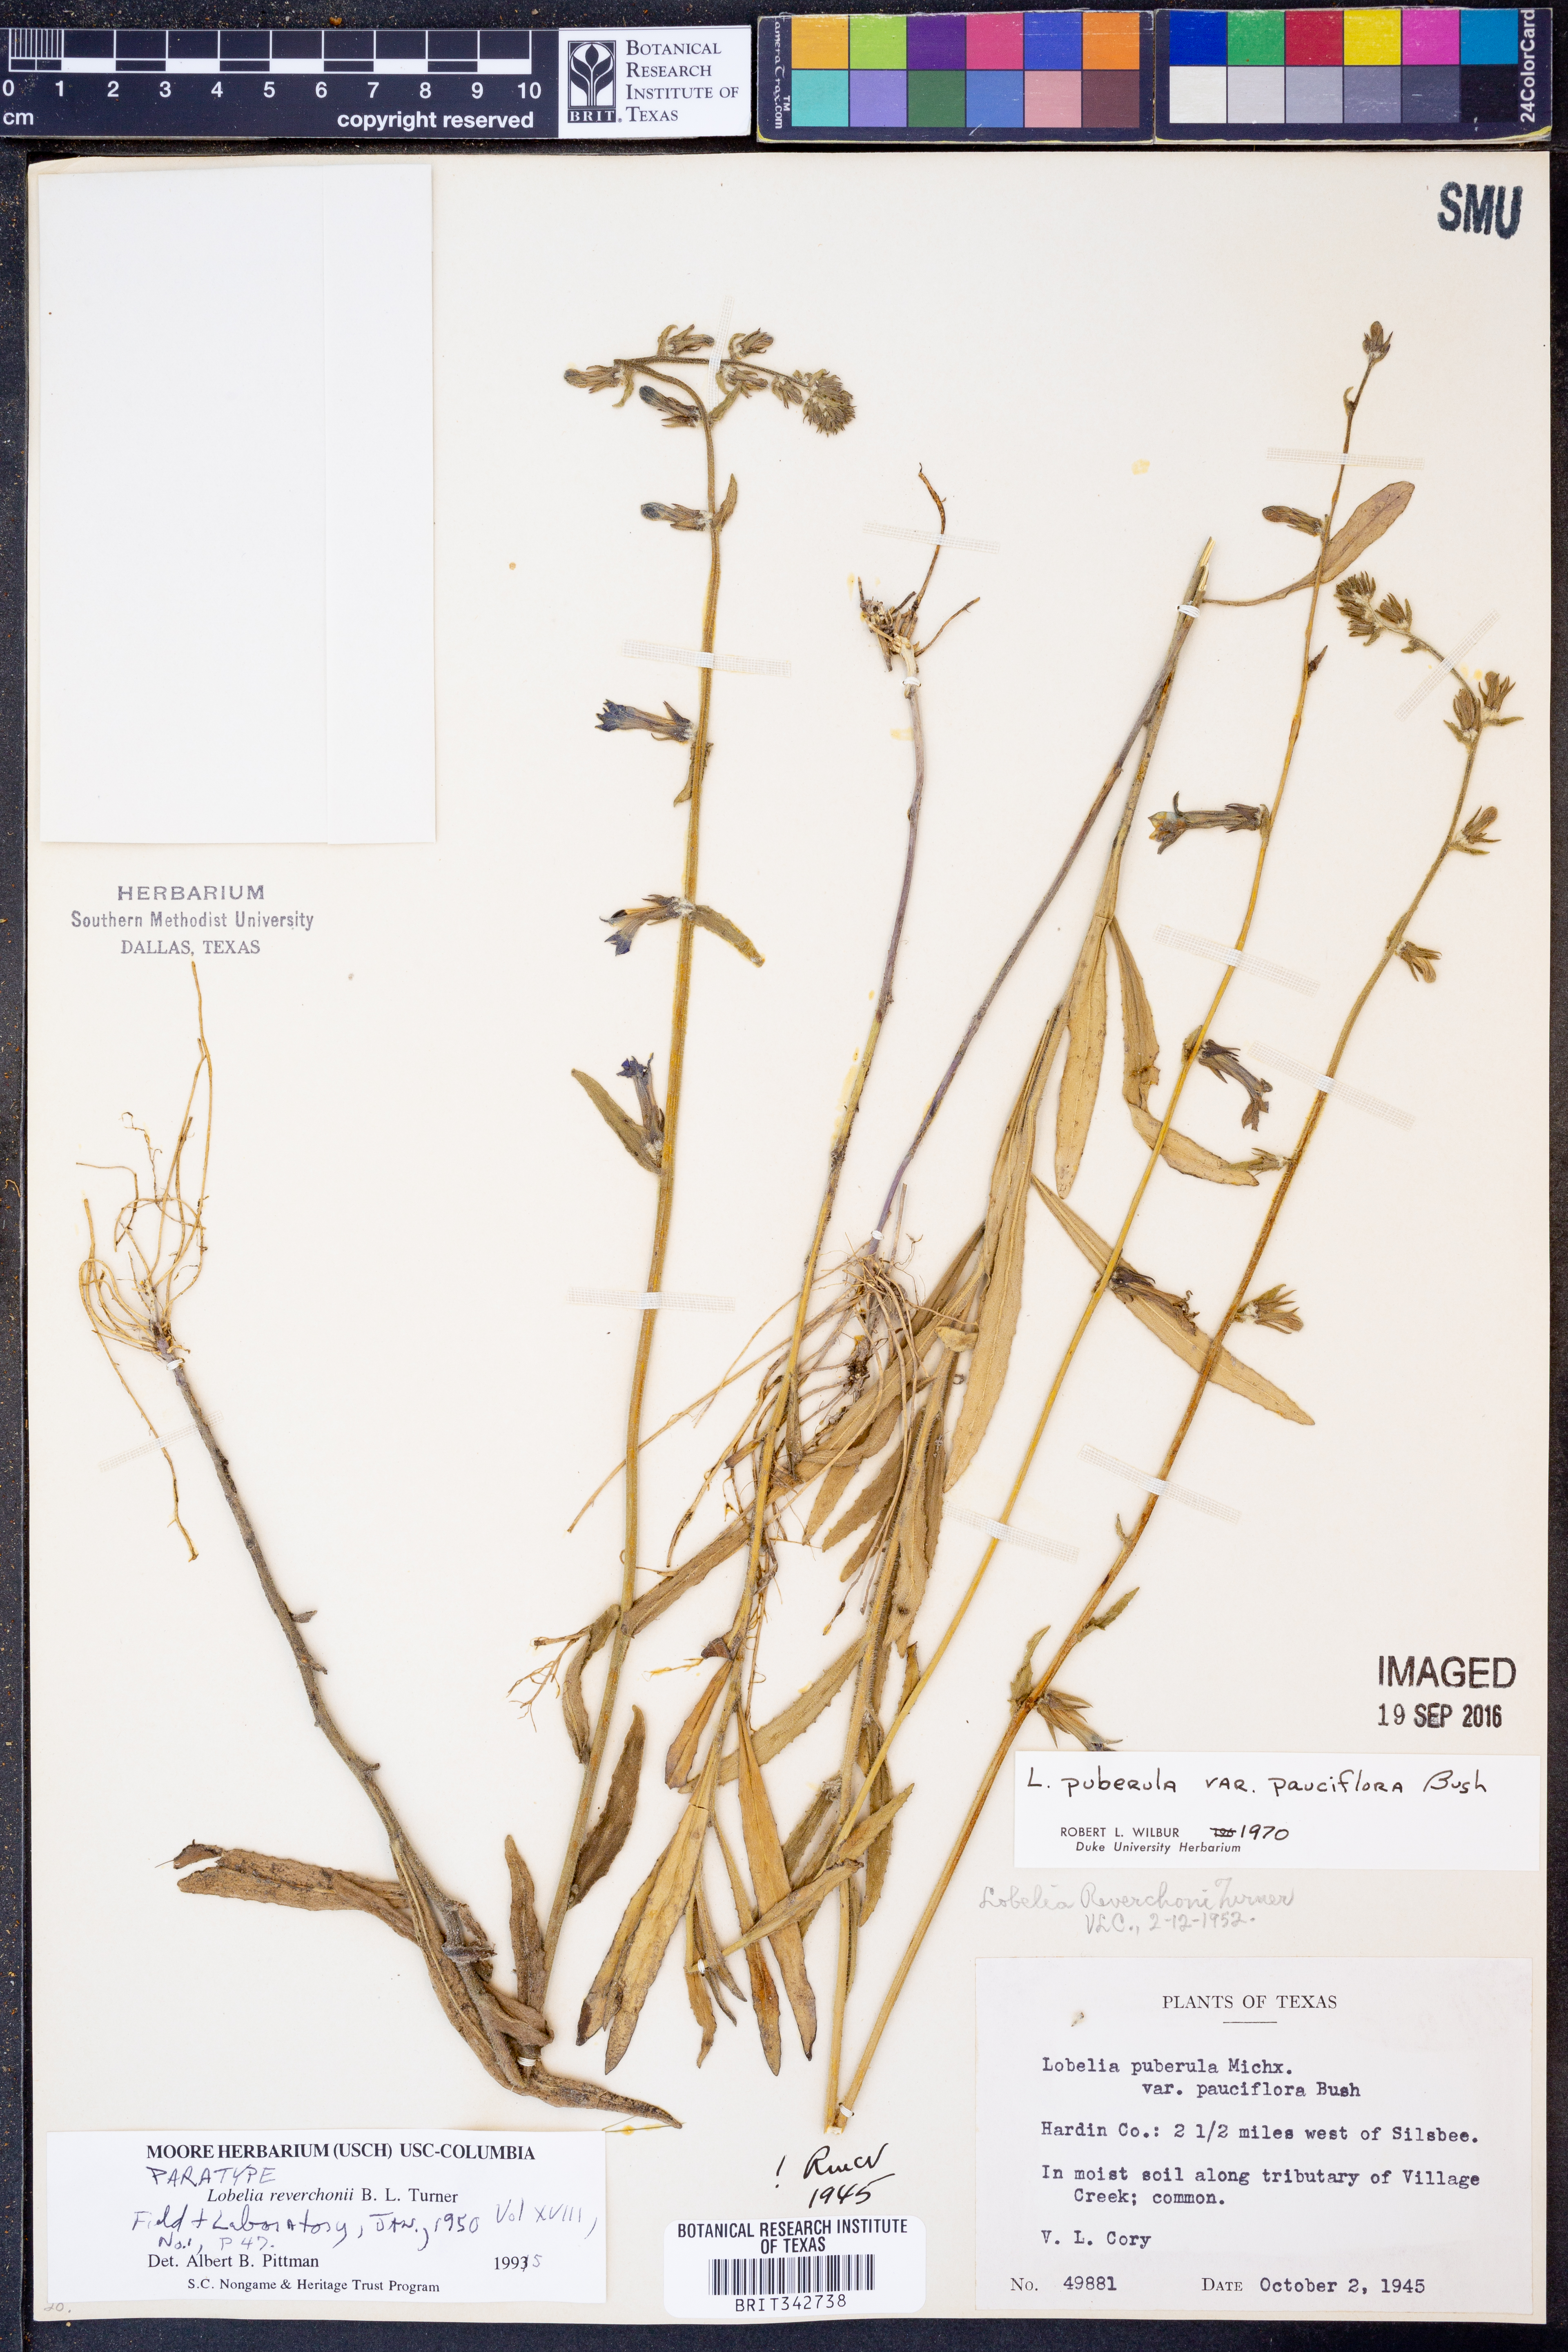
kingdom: Plantae
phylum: Tracheophyta
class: Magnoliopsida
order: Asterales
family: Campanulaceae
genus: Lobelia
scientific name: Lobelia reverchonii
